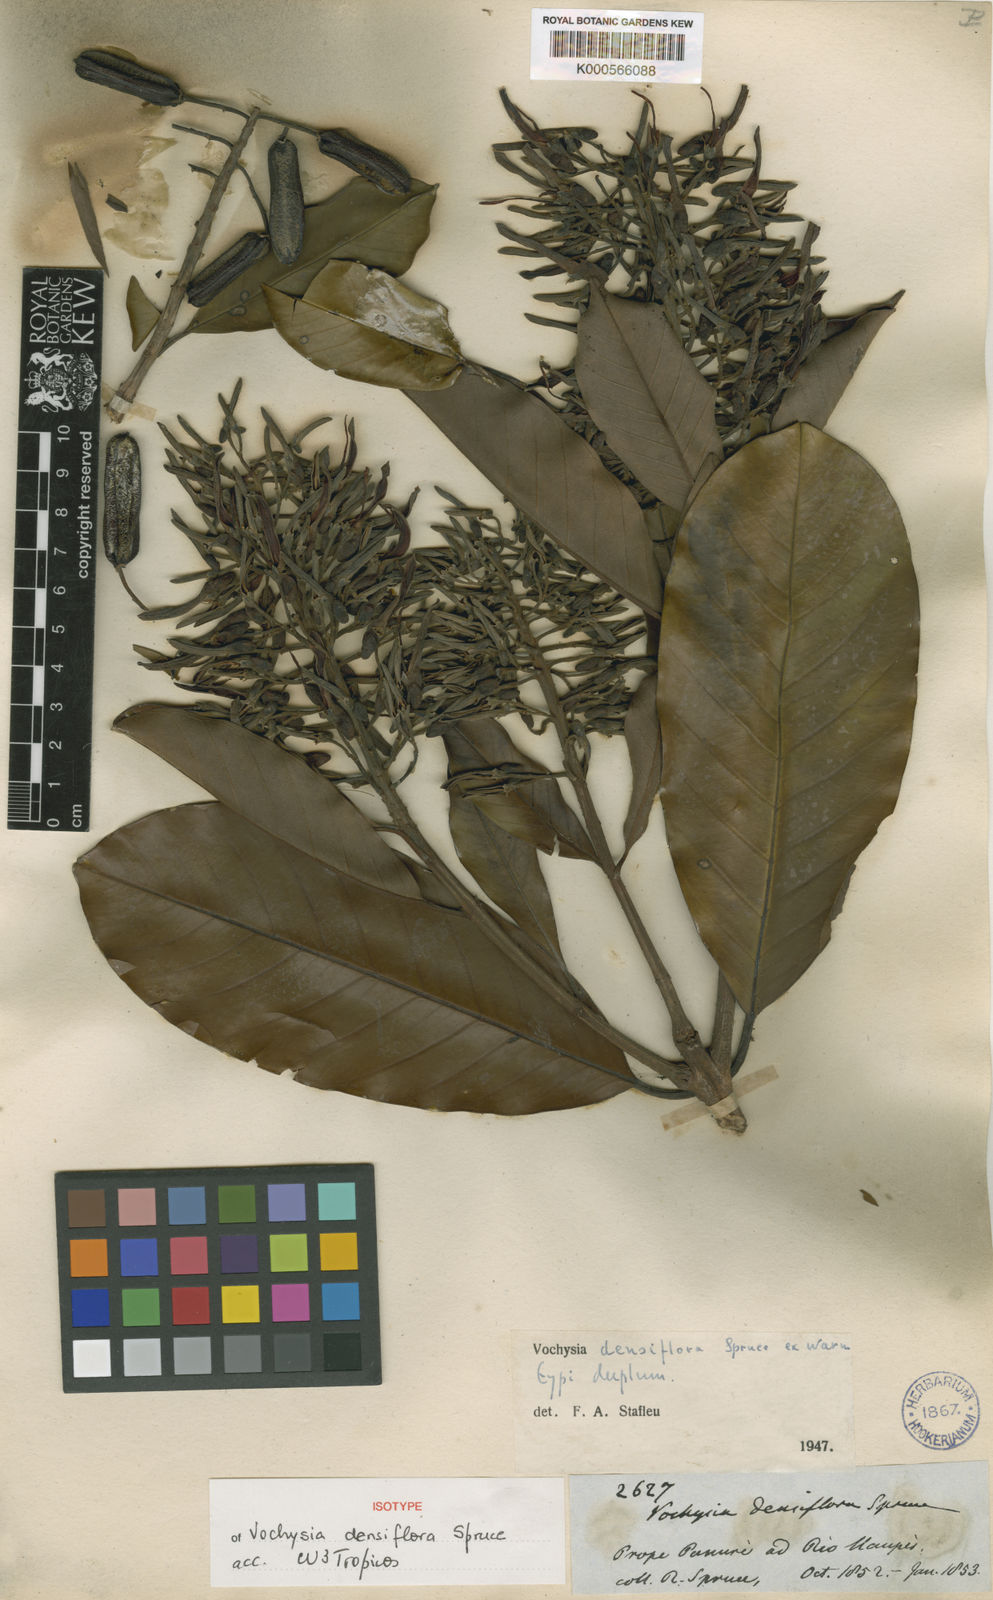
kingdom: Plantae
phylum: Tracheophyta
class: Magnoliopsida
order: Myrtales
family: Vochysiaceae
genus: Vochysia
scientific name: Vochysia densiflora
